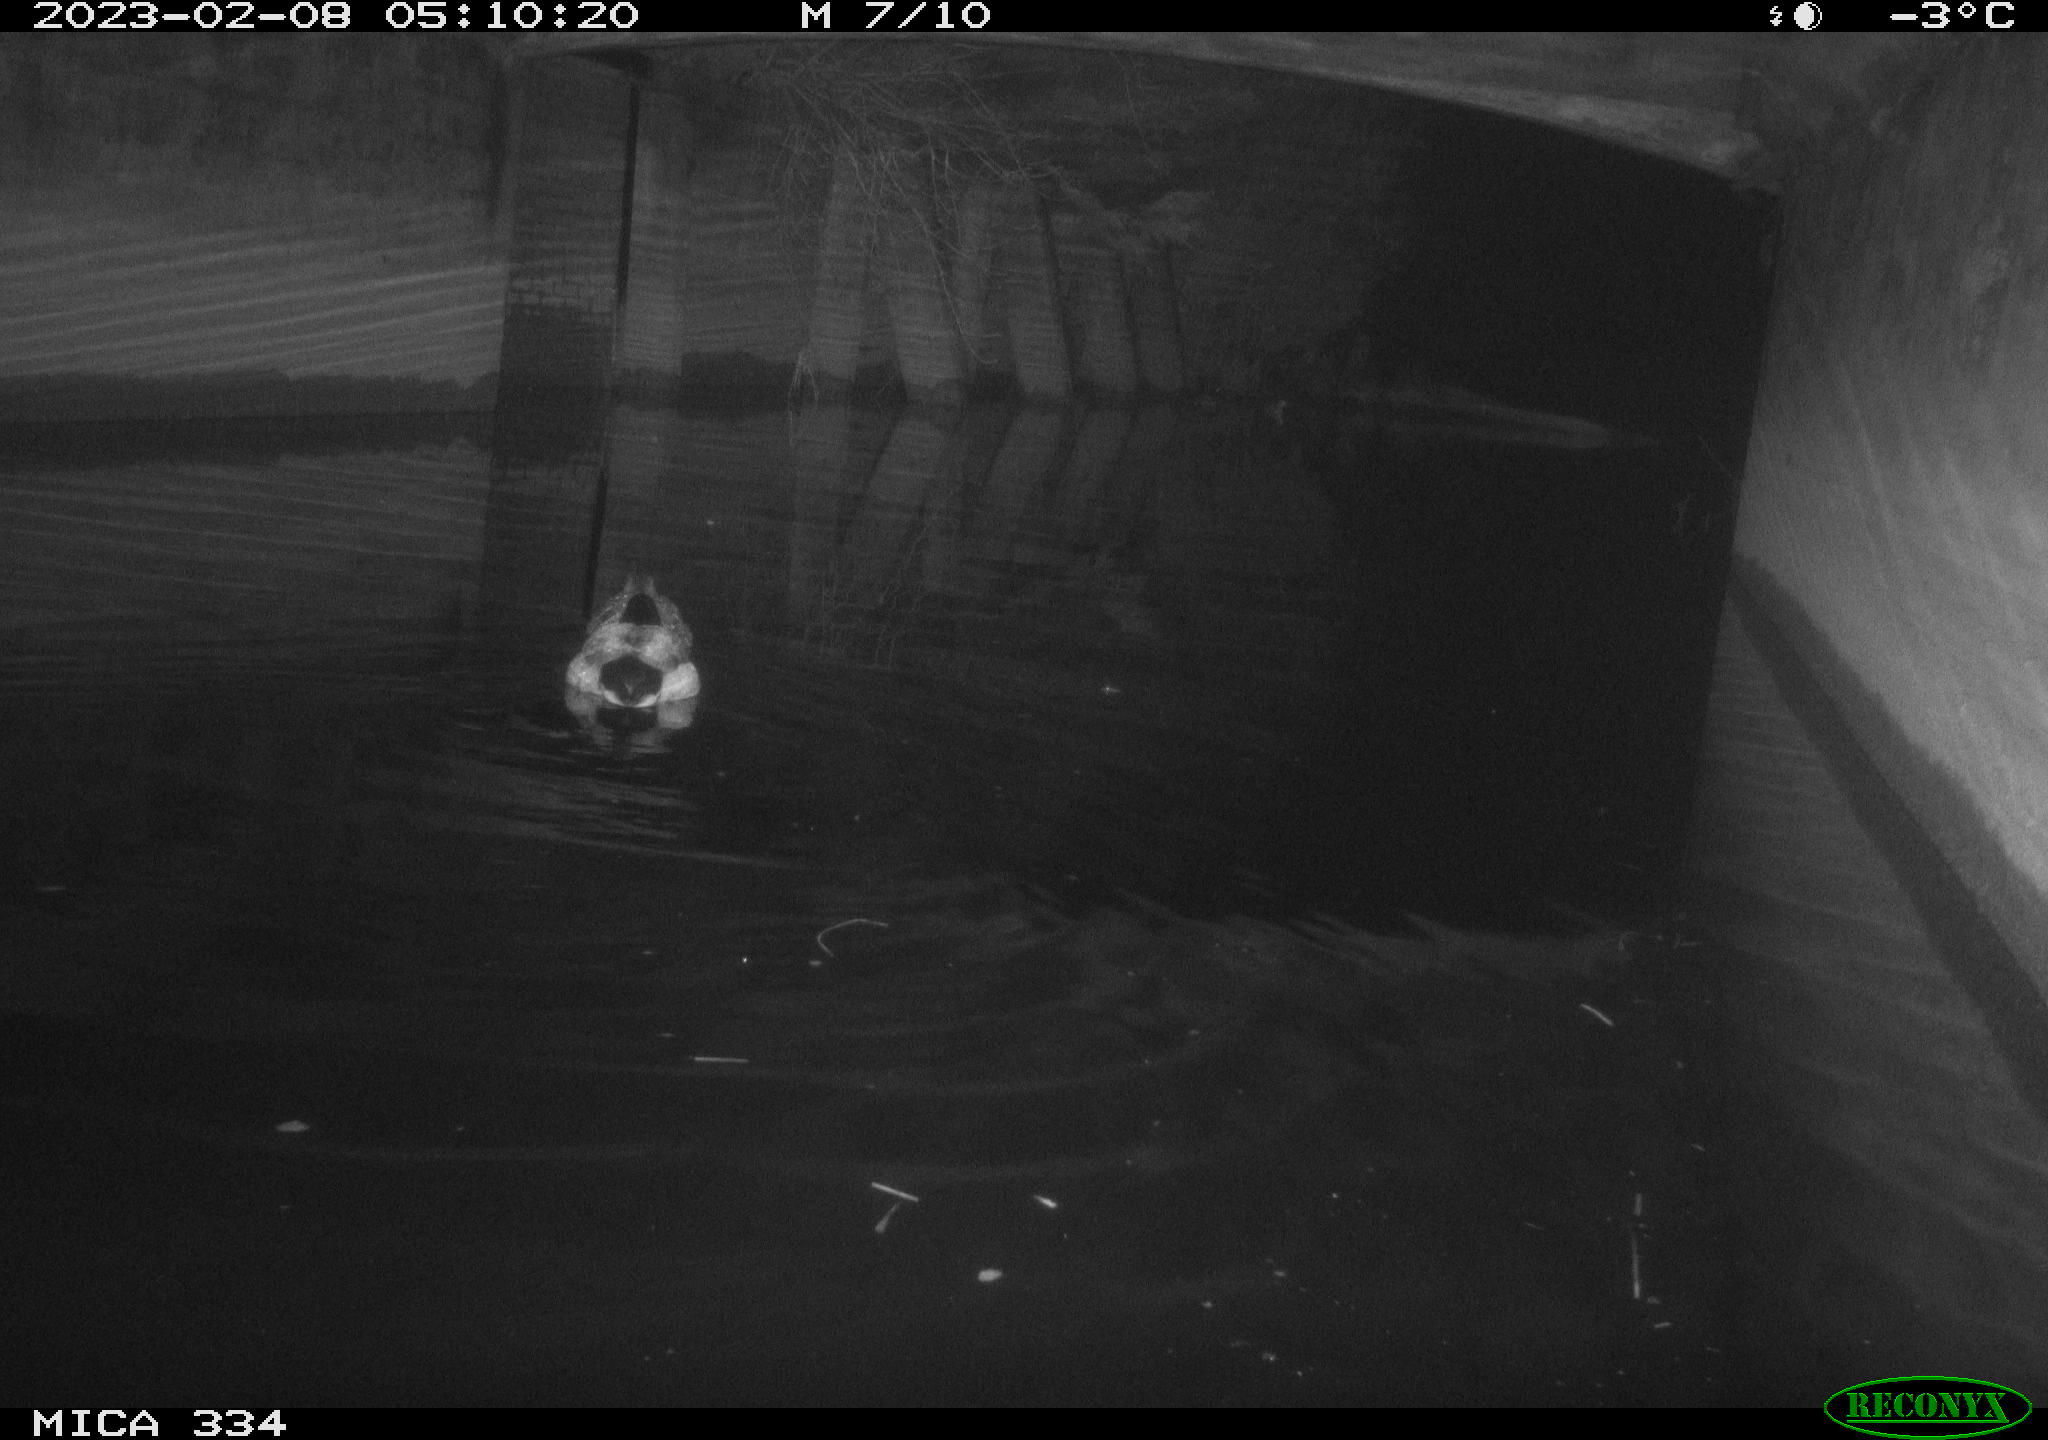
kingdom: Animalia
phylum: Chordata
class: Aves
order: Anseriformes
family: Anatidae
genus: Anas
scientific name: Anas
